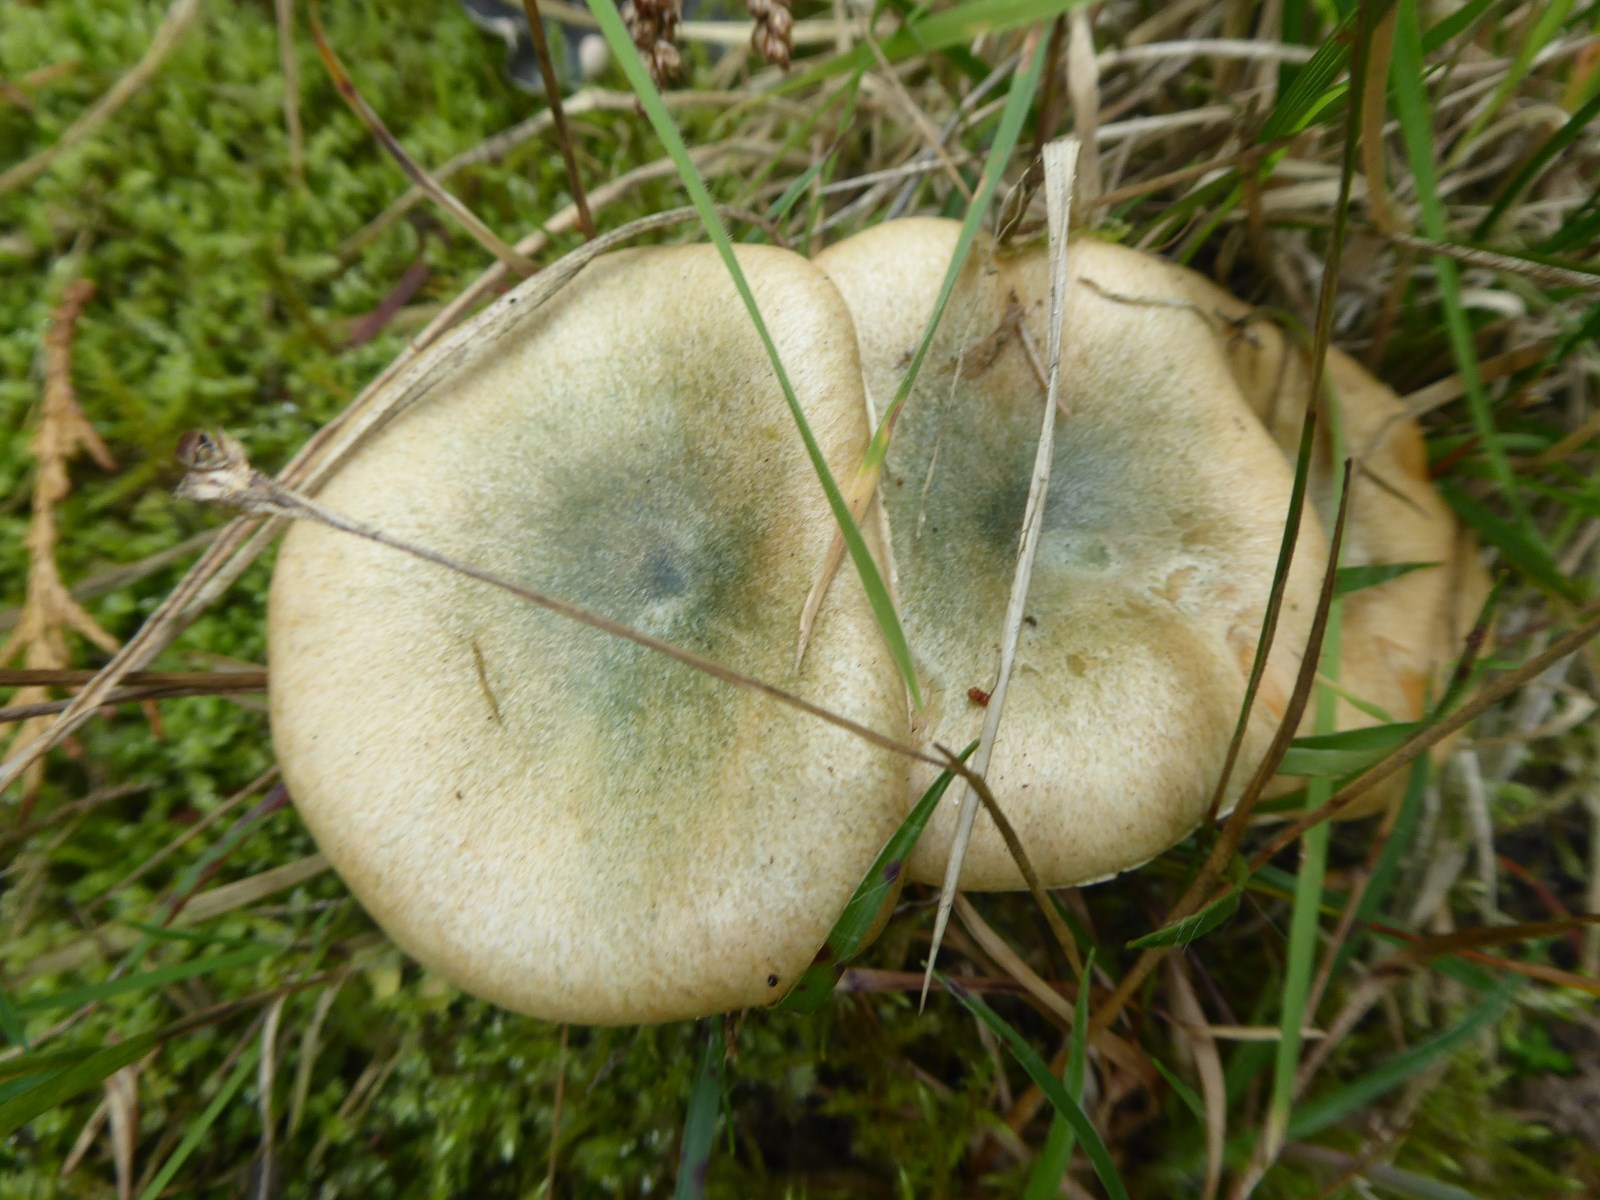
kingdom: Fungi
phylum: Basidiomycota
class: Agaricomycetes
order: Russulales
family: Russulaceae
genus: Lactarius
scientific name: Lactarius deterrimus
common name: gran-mælkehat
